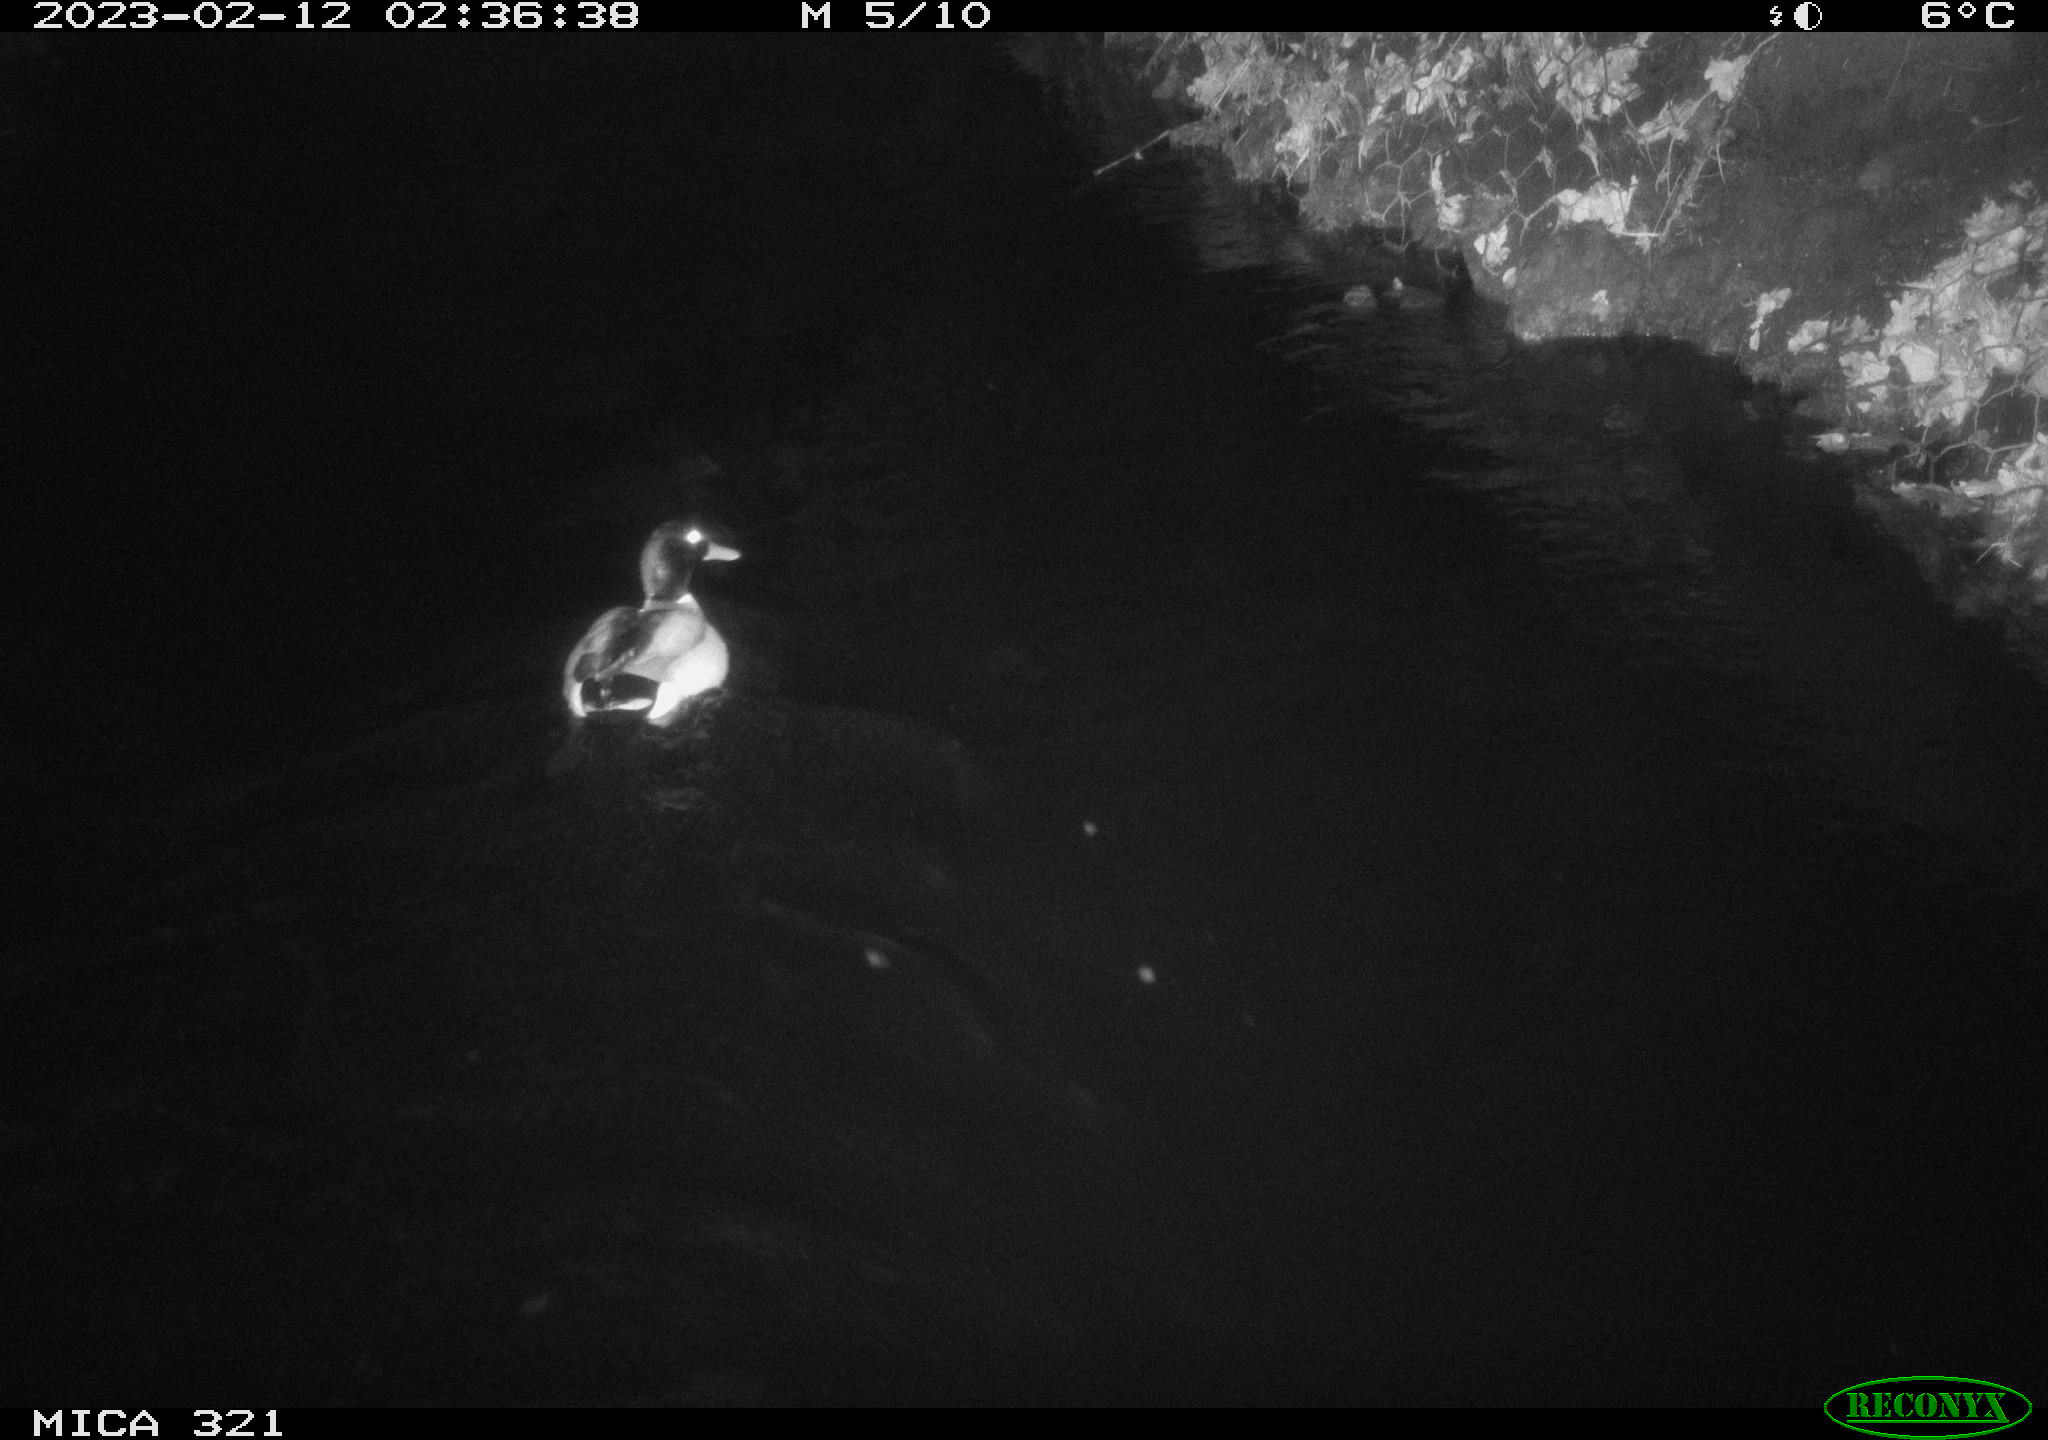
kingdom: Animalia
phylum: Chordata
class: Aves
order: Anseriformes
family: Anatidae
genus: Anas
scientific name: Anas
